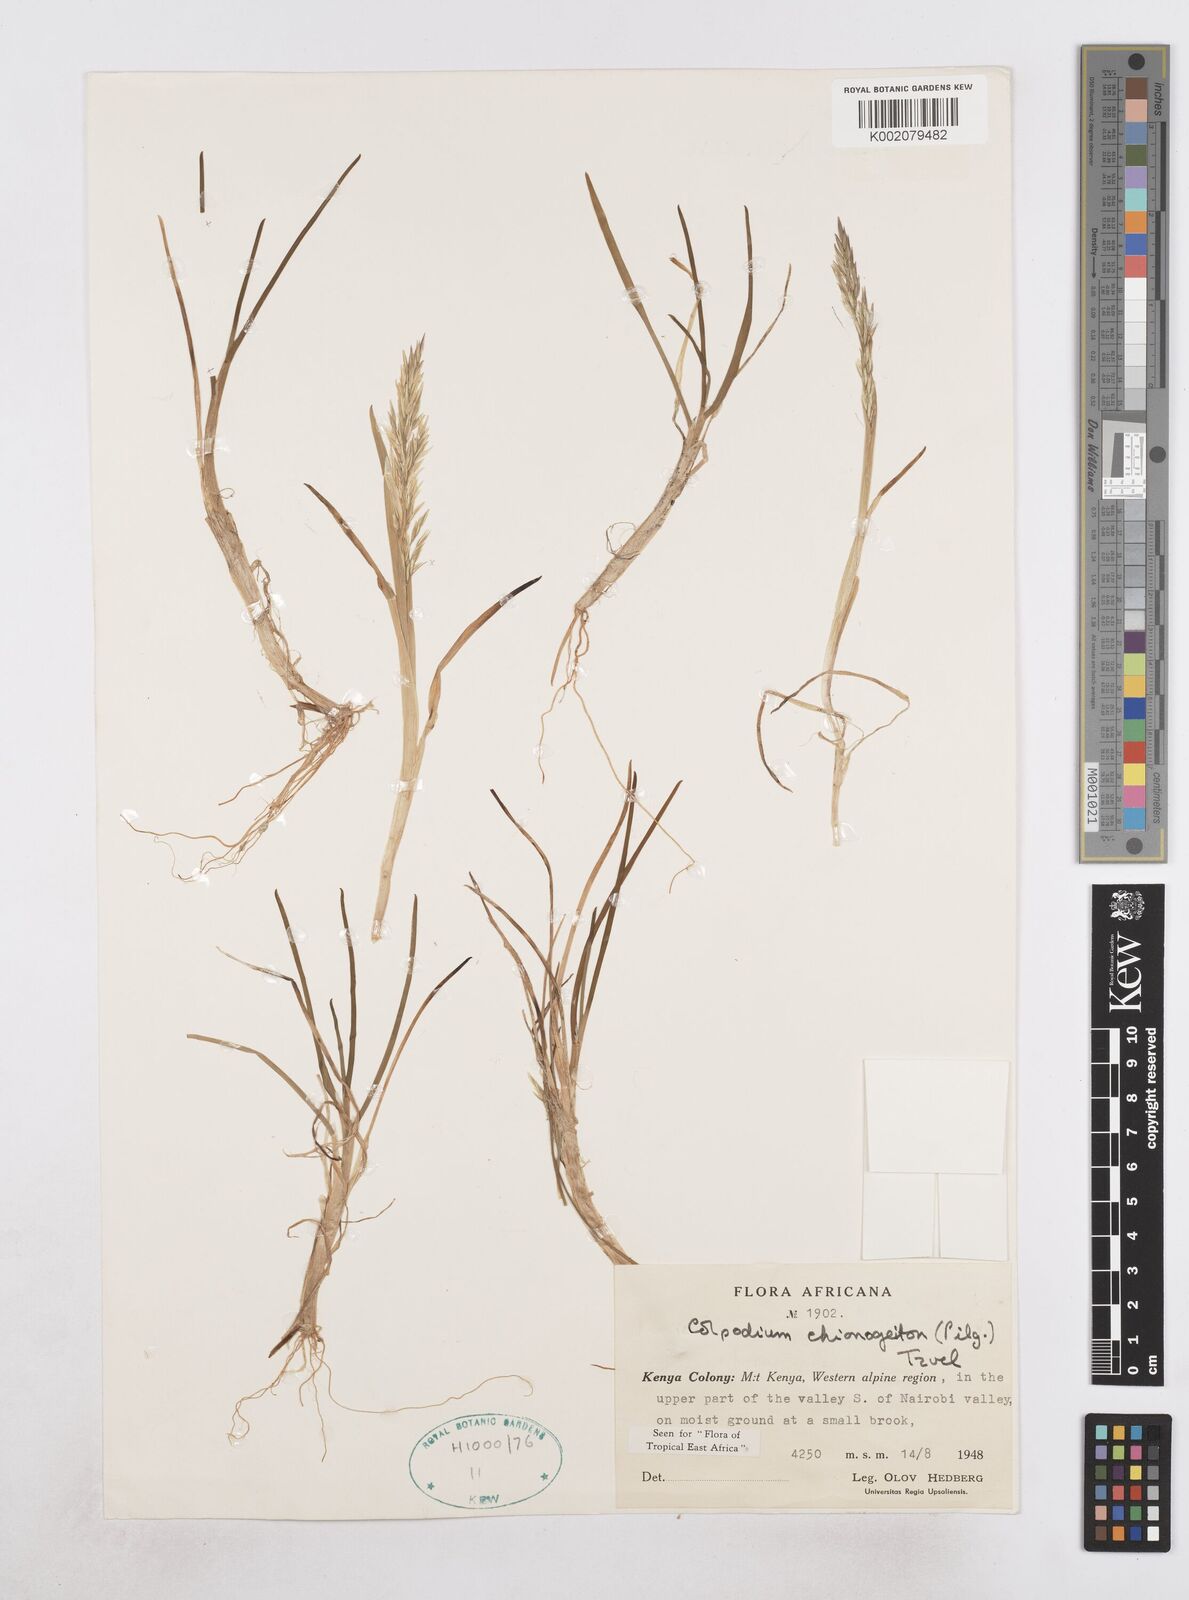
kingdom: Plantae
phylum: Tracheophyta
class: Liliopsida
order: Poales
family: Poaceae
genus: Colpodium
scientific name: Colpodium chionogeiton
